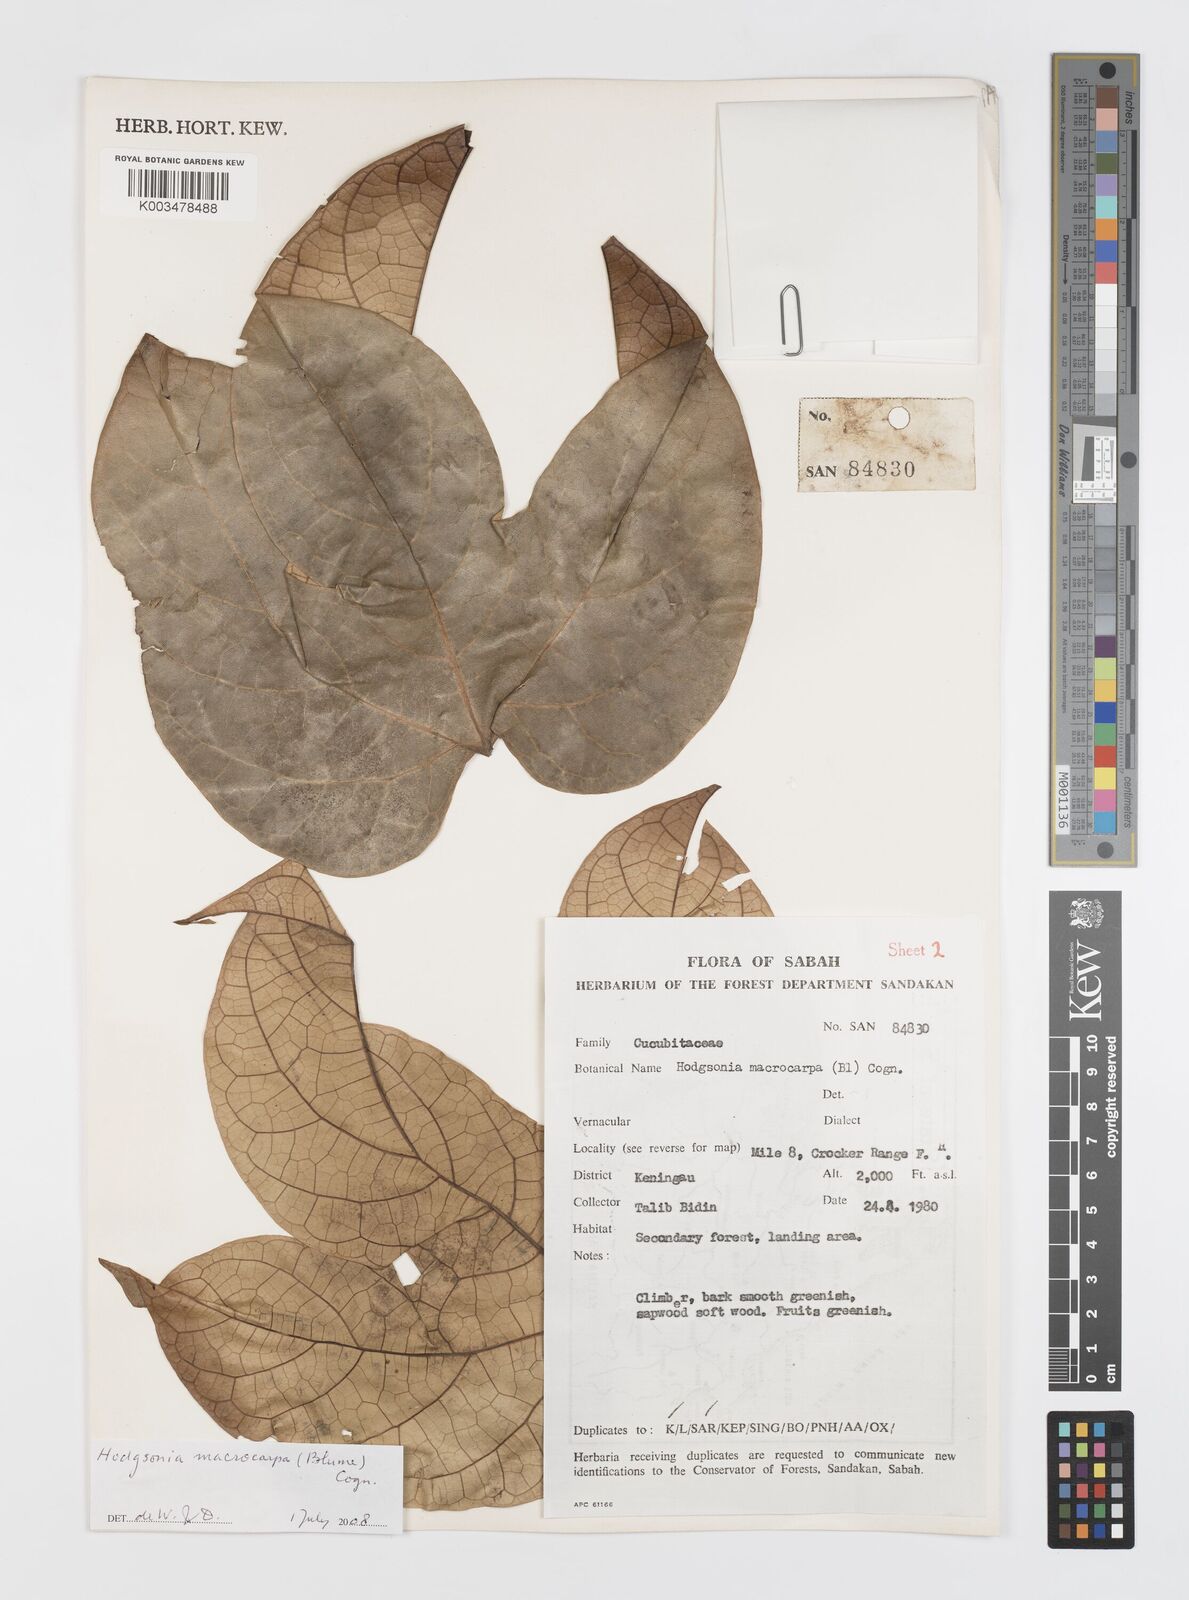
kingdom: Plantae
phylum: Tracheophyta
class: Magnoliopsida
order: Cucurbitales
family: Cucurbitaceae
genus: Hodgsonia
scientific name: Hodgsonia macrocarpa
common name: Chinese lardfruit
